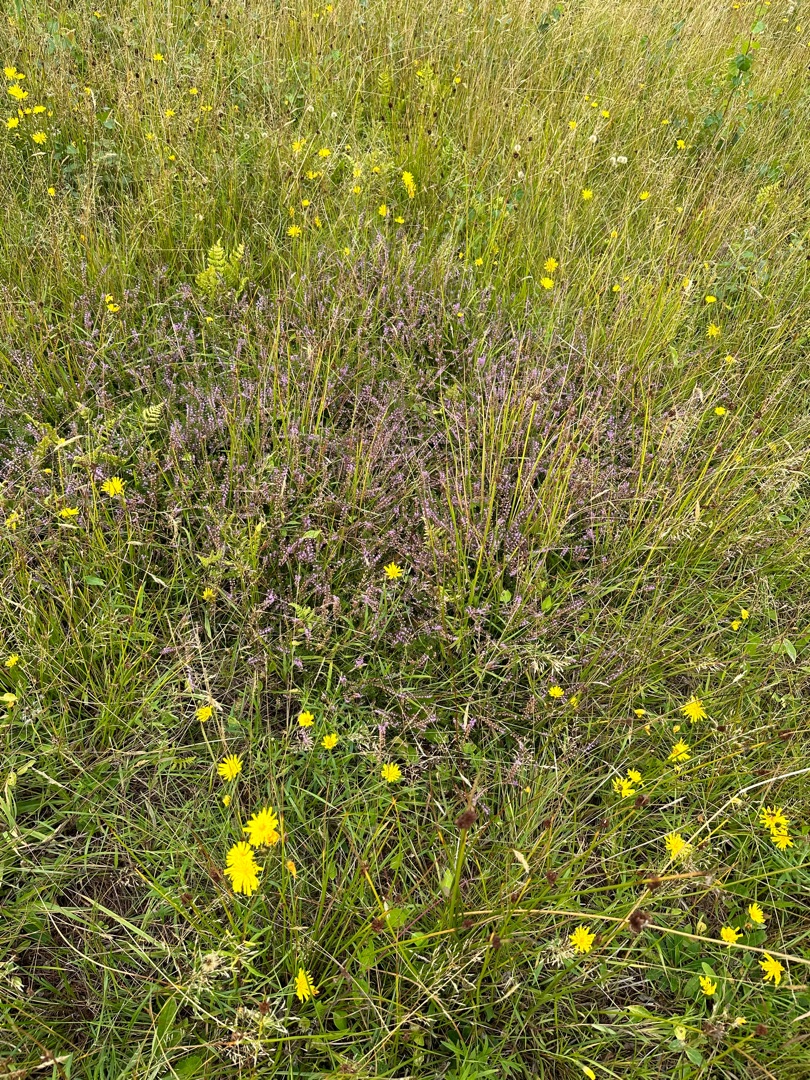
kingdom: Plantae
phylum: Tracheophyta
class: Magnoliopsida
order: Ericales
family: Ericaceae
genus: Calluna
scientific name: Calluna vulgaris
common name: Hedelyng
